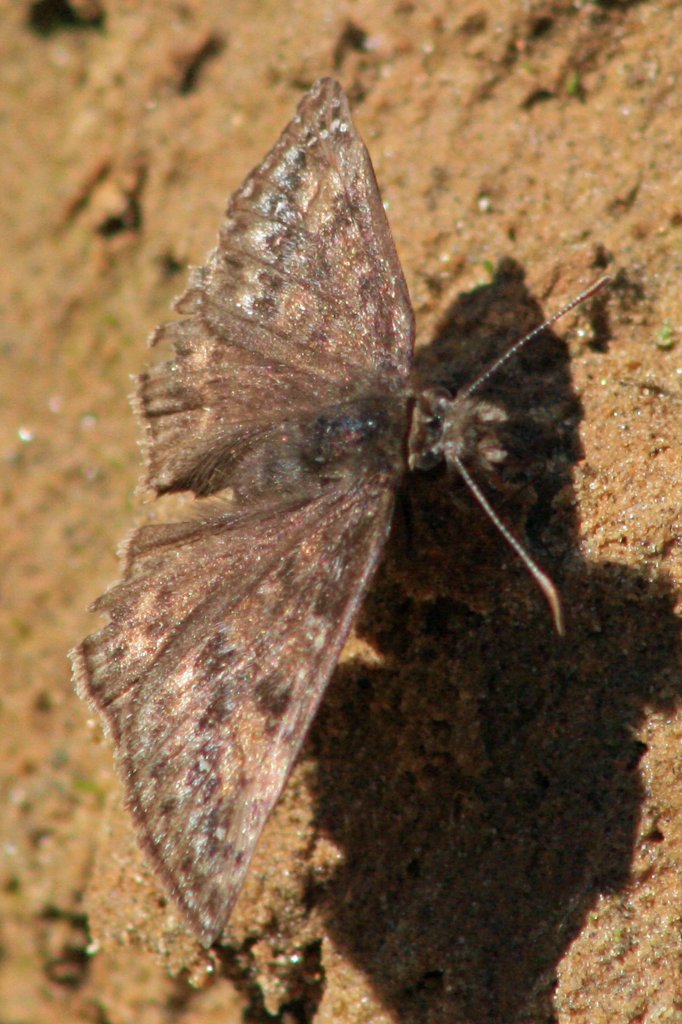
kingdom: Animalia
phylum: Arthropoda
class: Insecta
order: Lepidoptera
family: Hesperiidae
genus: Gesta
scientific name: Gesta
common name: Juvenal's Duskywing
